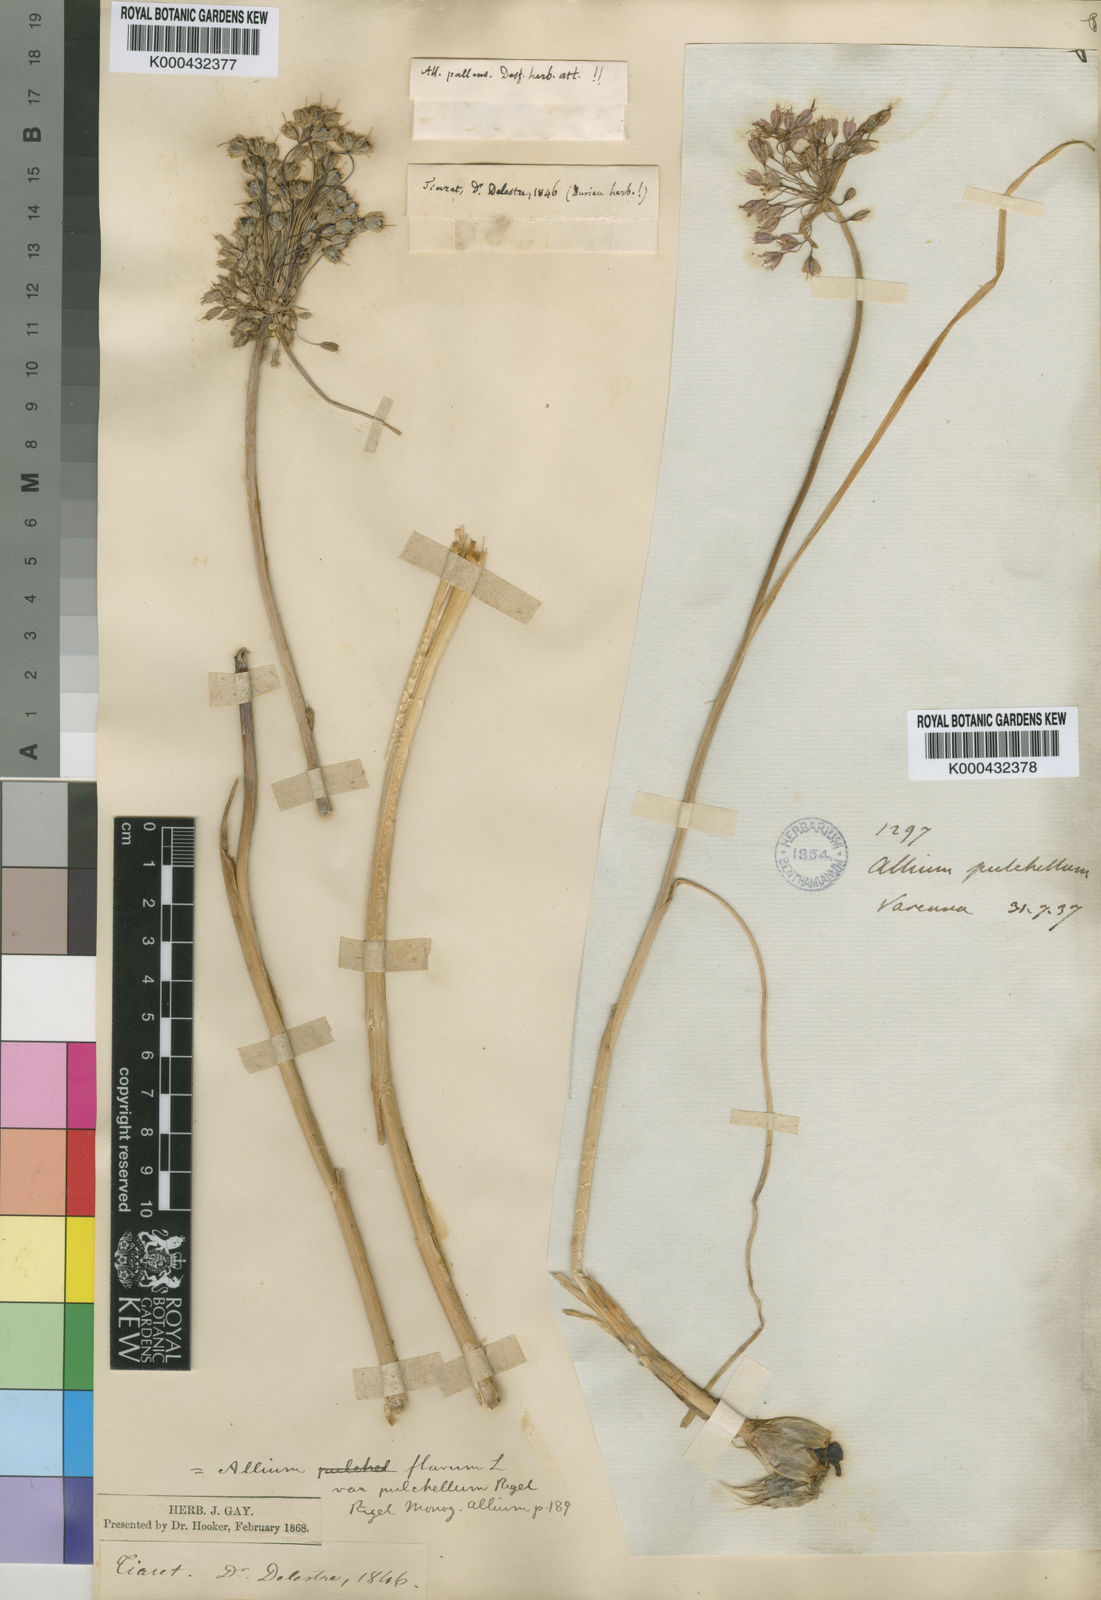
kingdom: Plantae
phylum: Tracheophyta
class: Liliopsida
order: Asparagales
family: Amaryllidaceae
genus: Allium
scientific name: Allium
